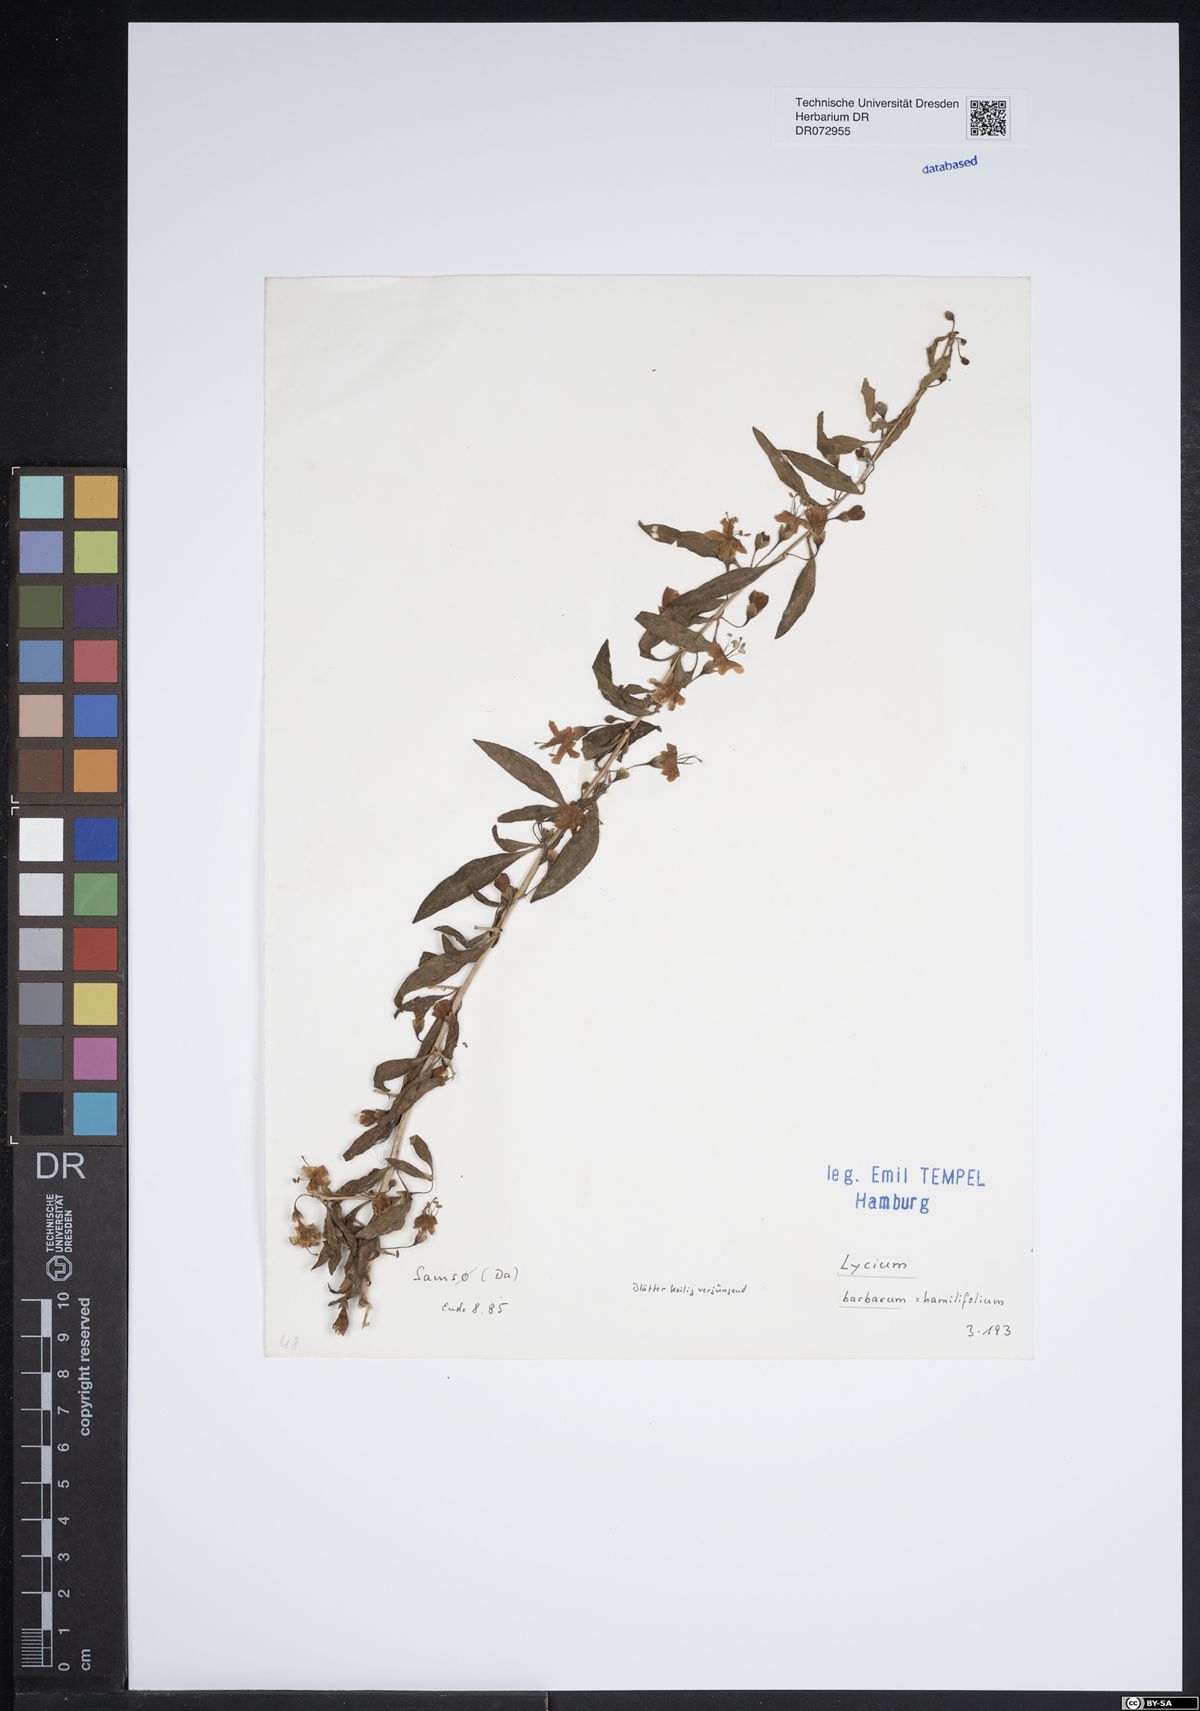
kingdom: Plantae
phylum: Tracheophyta
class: Magnoliopsida
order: Solanales
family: Solanaceae
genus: Lycium
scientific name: Lycium barbarum
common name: Duke of argyll's teaplant
